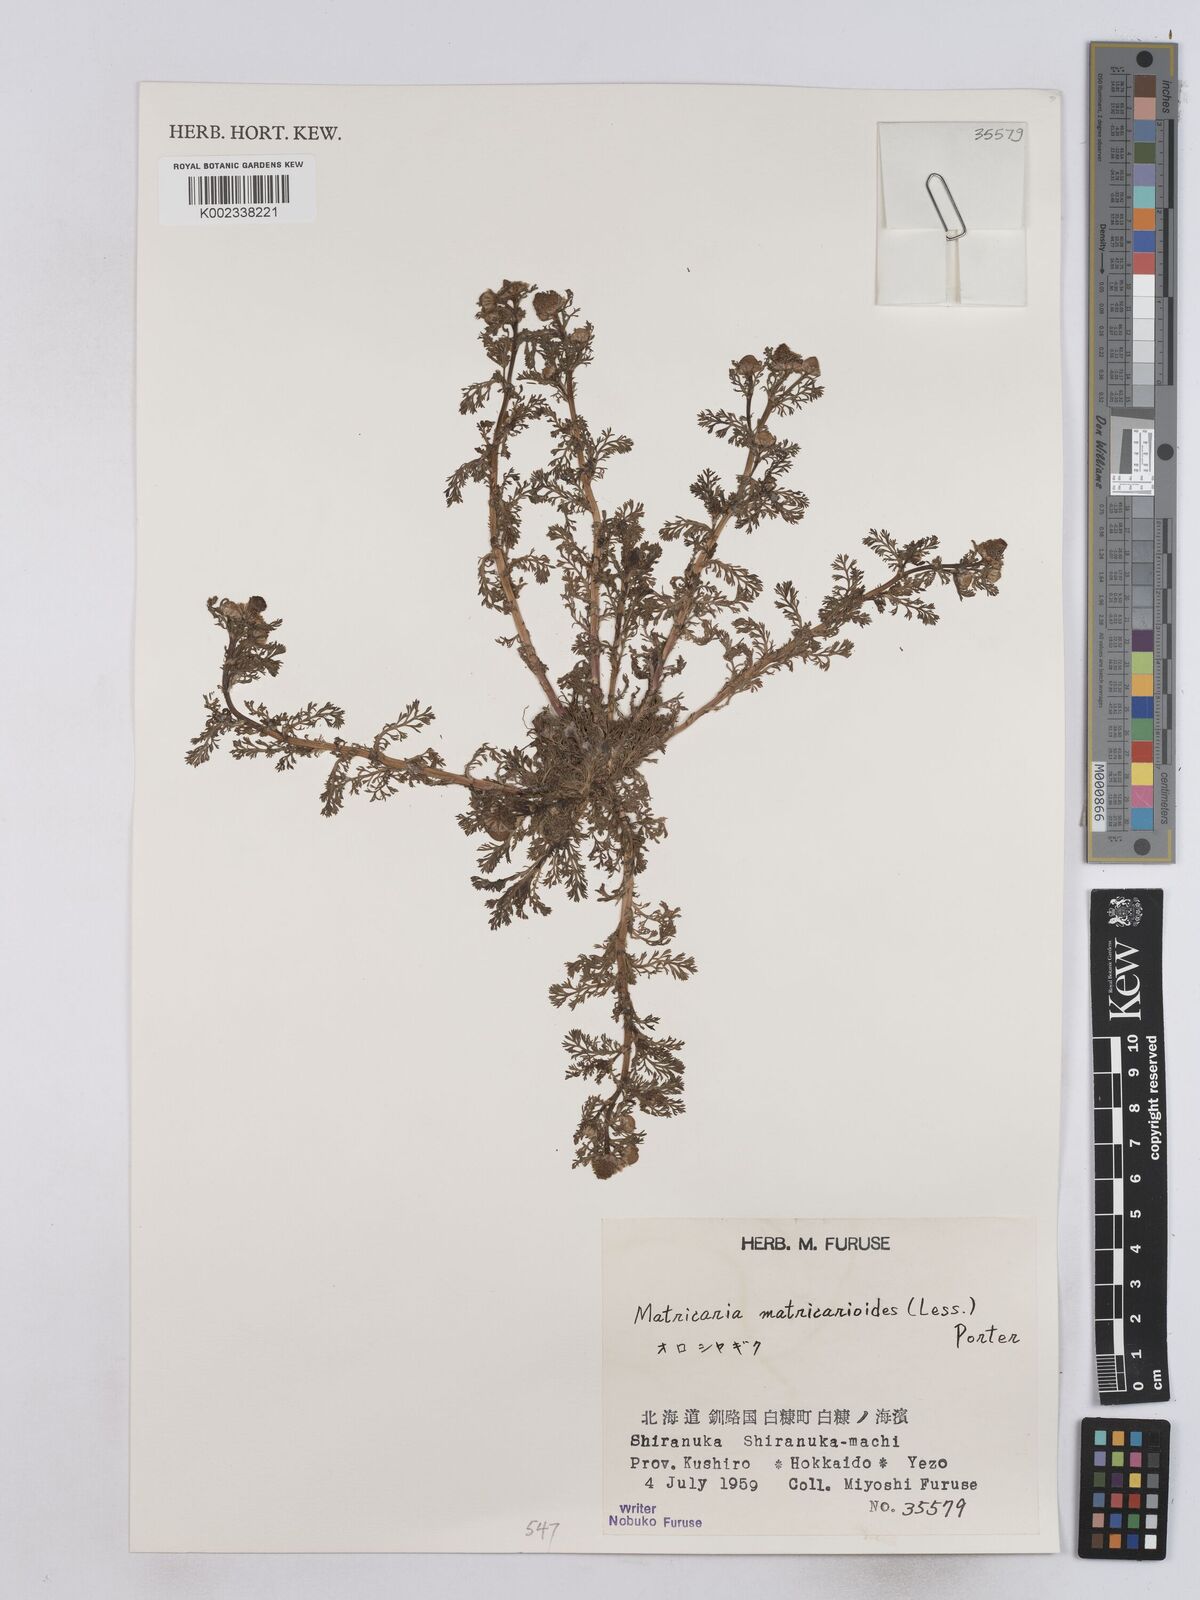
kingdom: Plantae
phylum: Tracheophyta
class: Magnoliopsida
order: Asterales
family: Asteraceae
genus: Matricaria
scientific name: Matricaria discoidea
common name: Disc mayweed
